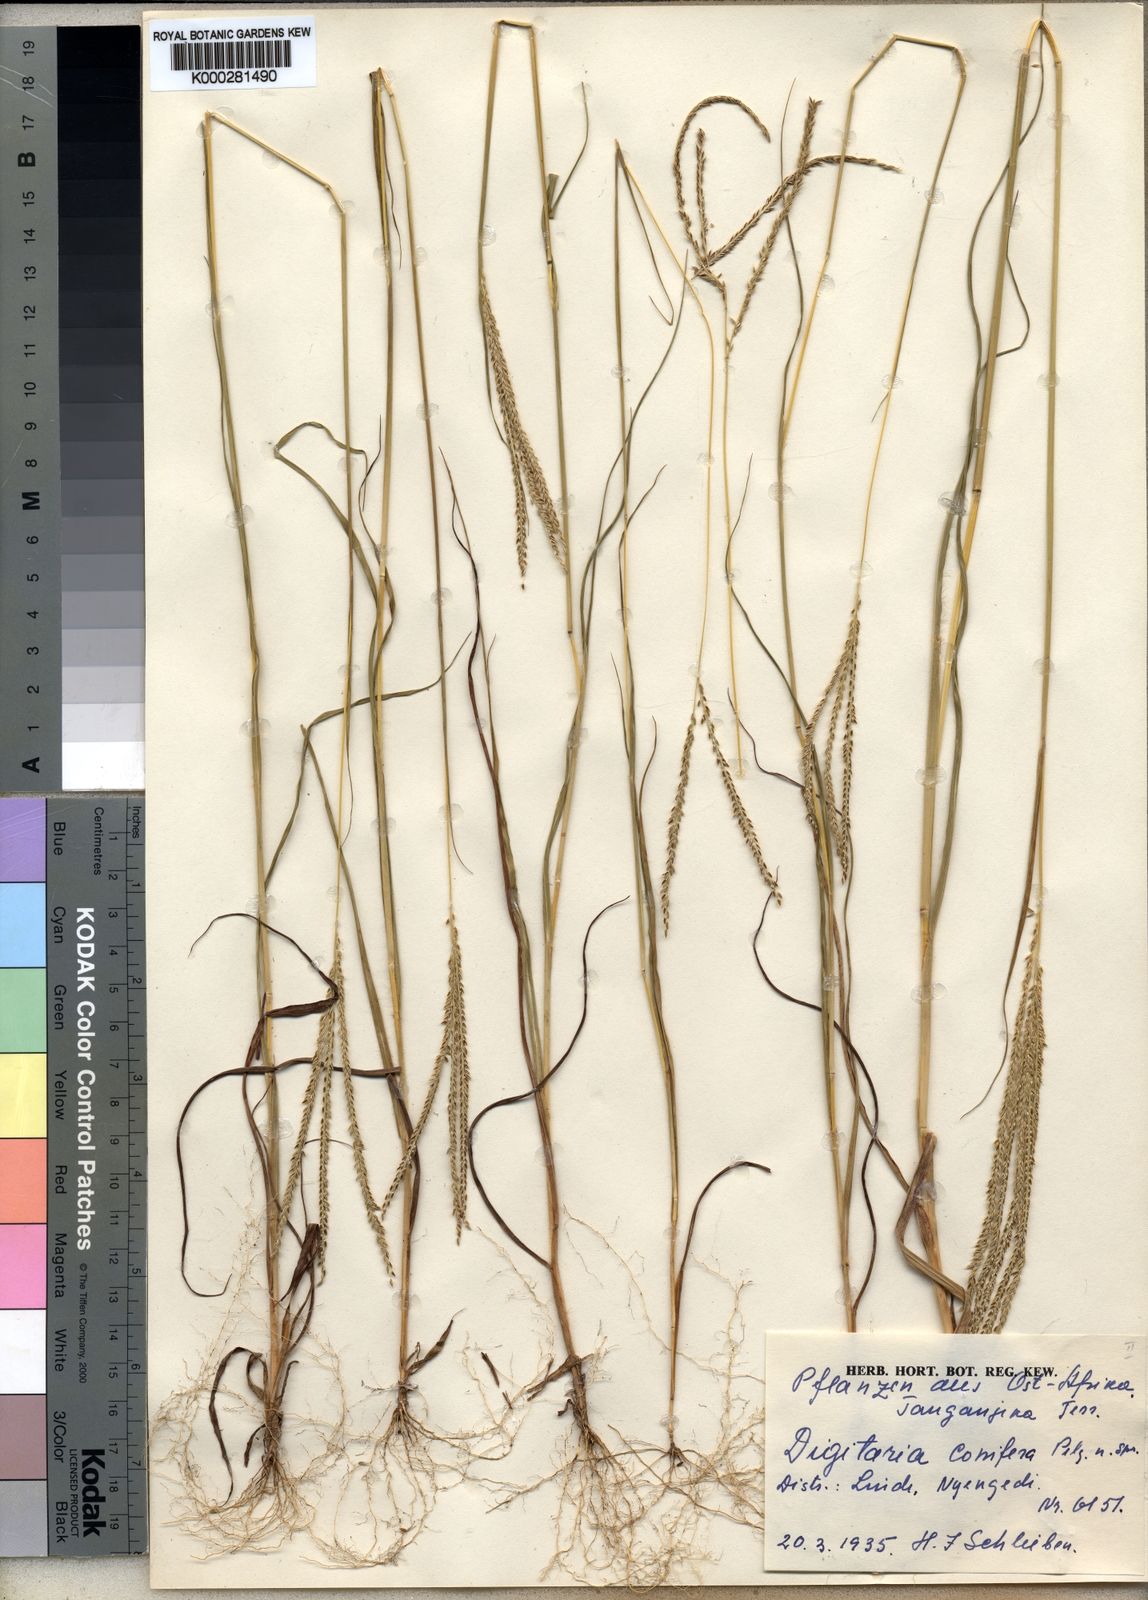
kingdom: Plantae
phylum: Tracheophyta
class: Liliopsida
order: Poales
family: Poaceae
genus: Digitaria
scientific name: Digitaria comifera
